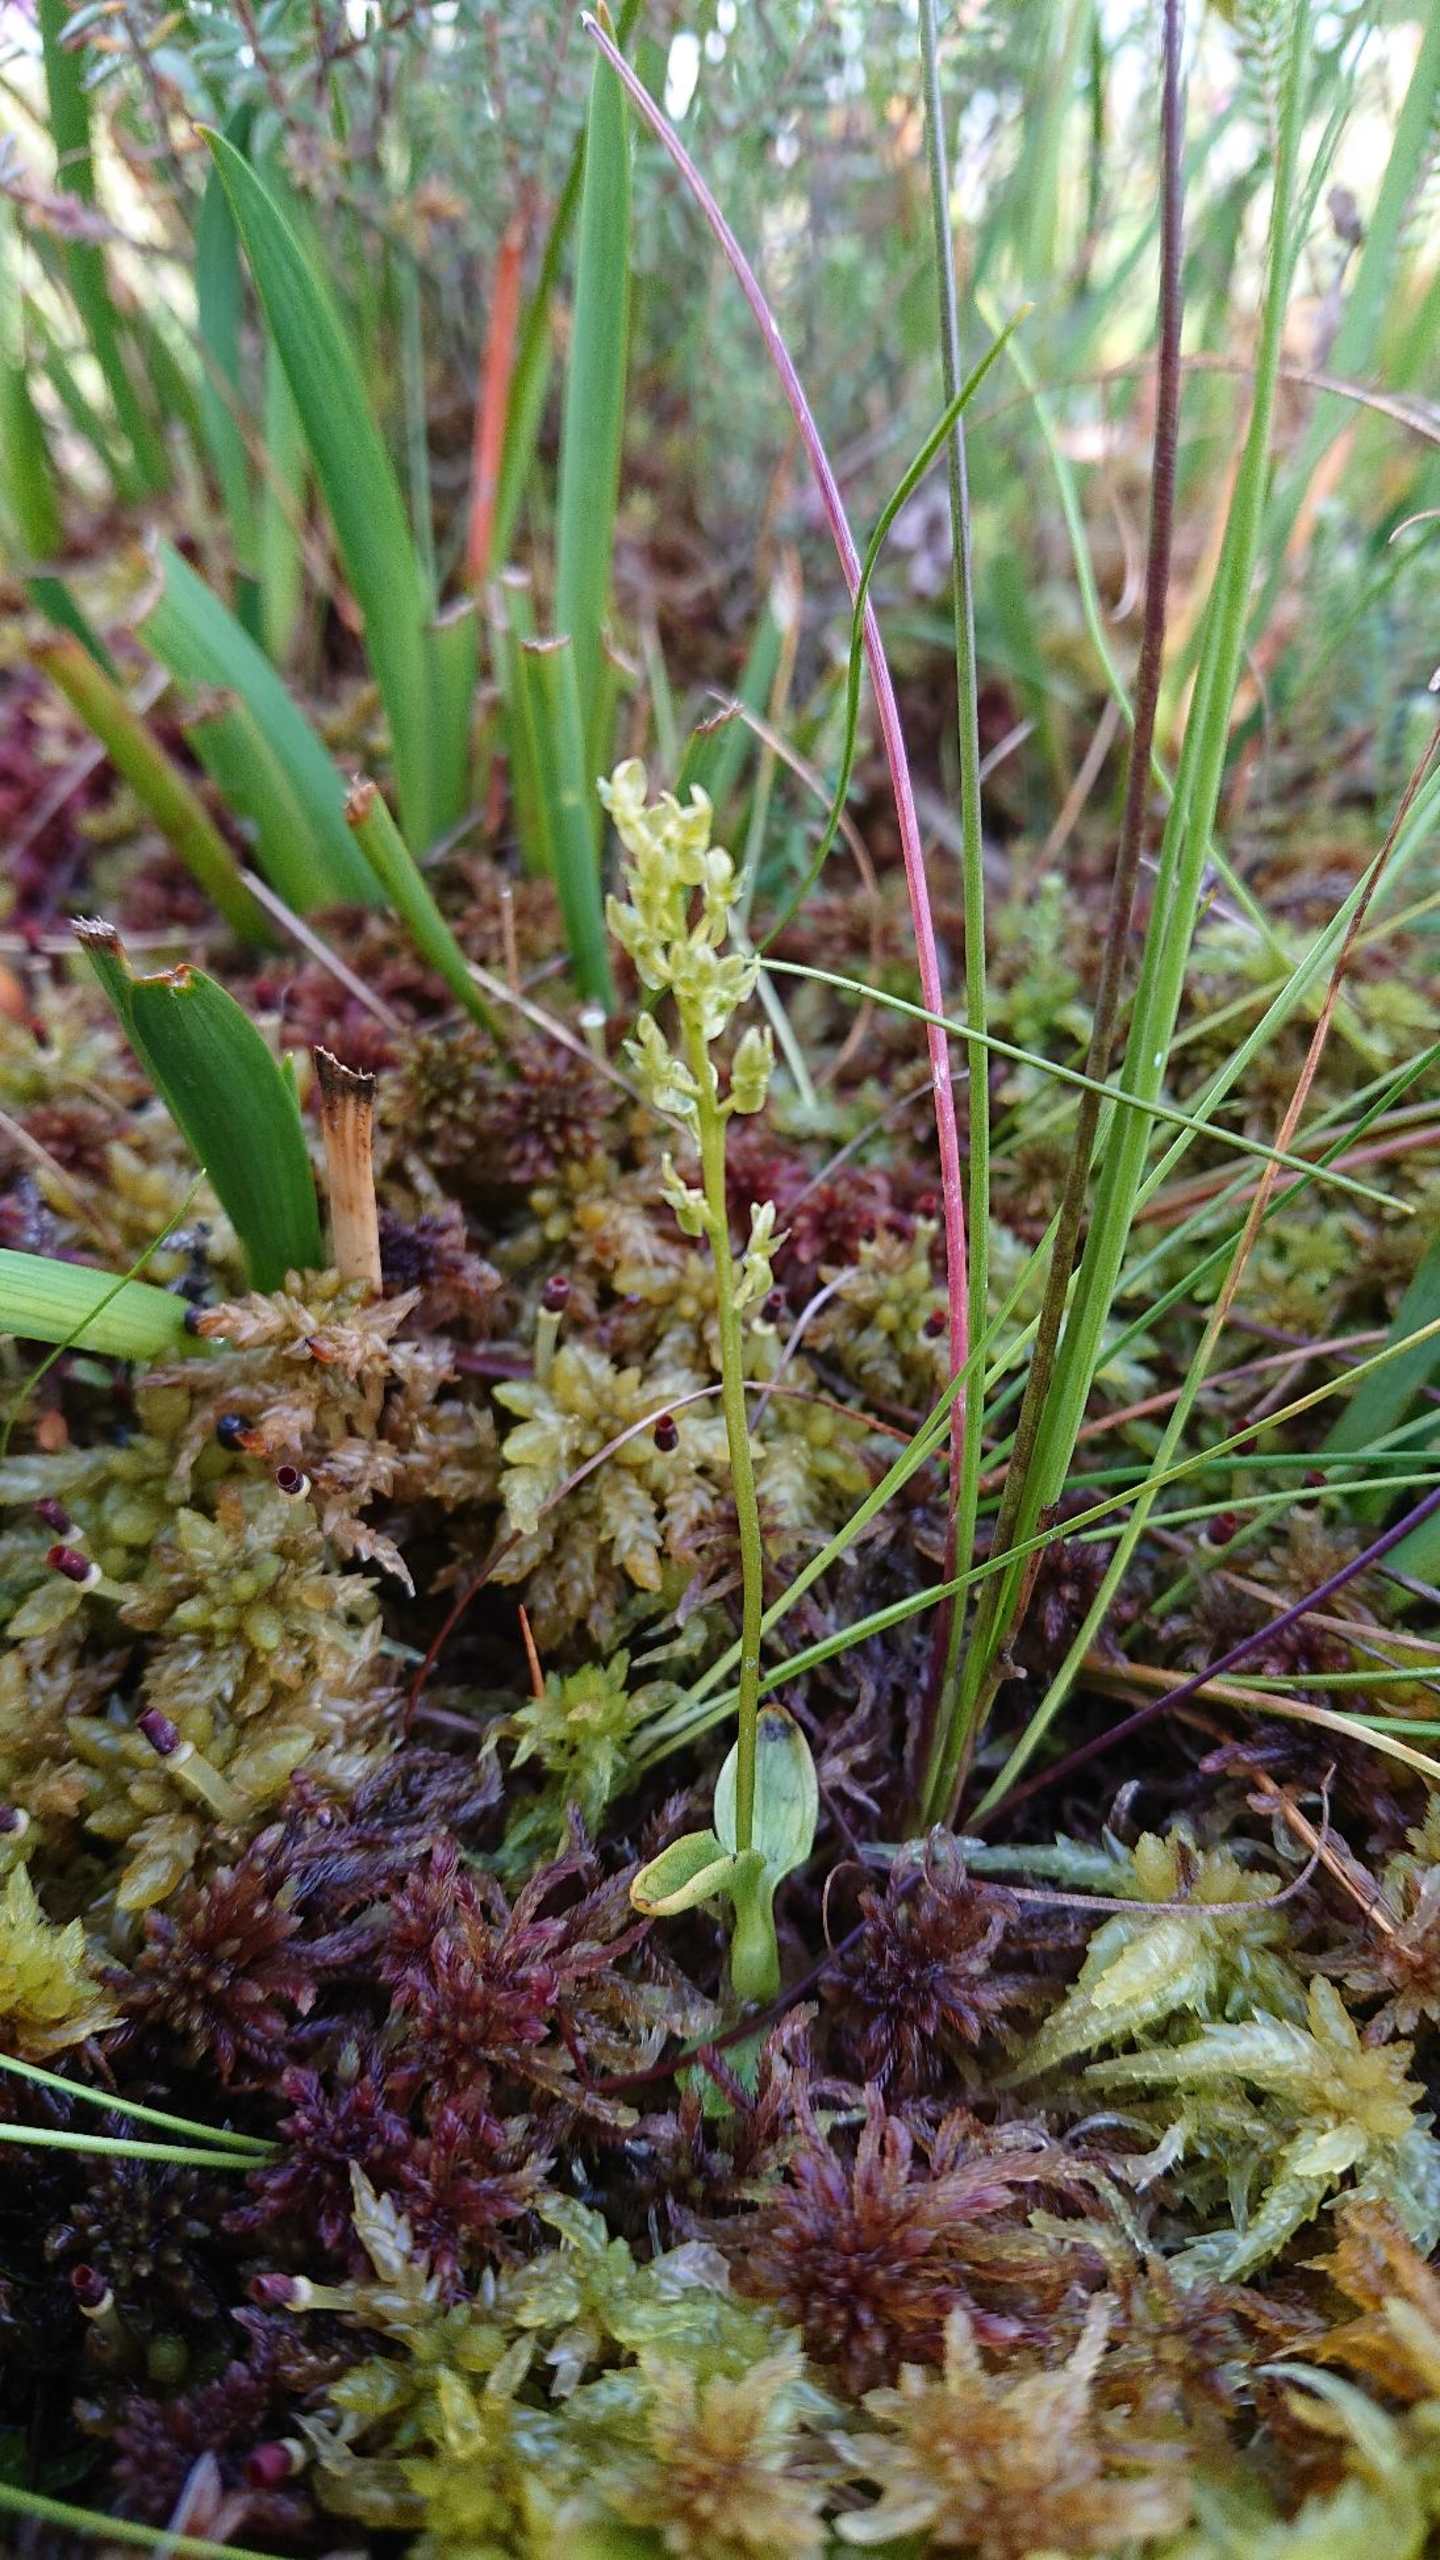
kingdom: Plantae
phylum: Tracheophyta
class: Liliopsida
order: Asparagales
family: Orchidaceae
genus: Hammarbya
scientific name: Hammarbya paludosa
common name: Hjertelæbe
